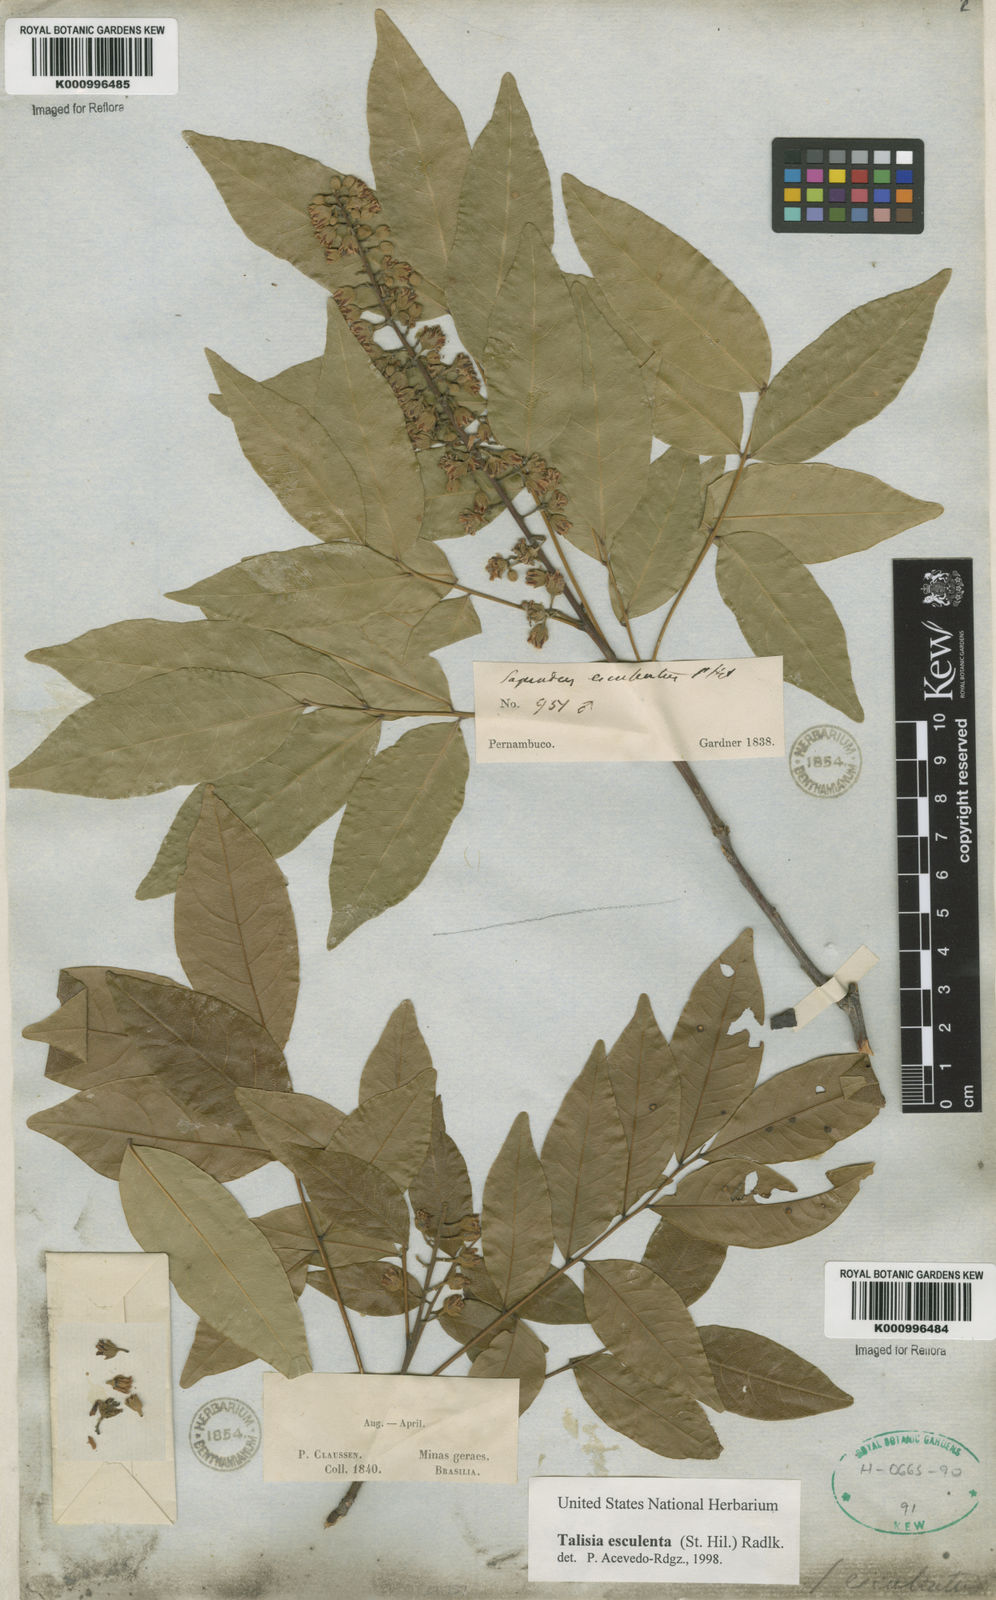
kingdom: Plantae
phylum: Tracheophyta
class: Magnoliopsida
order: Sapindales
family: Sapindaceae
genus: Talisia
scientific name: Talisia
